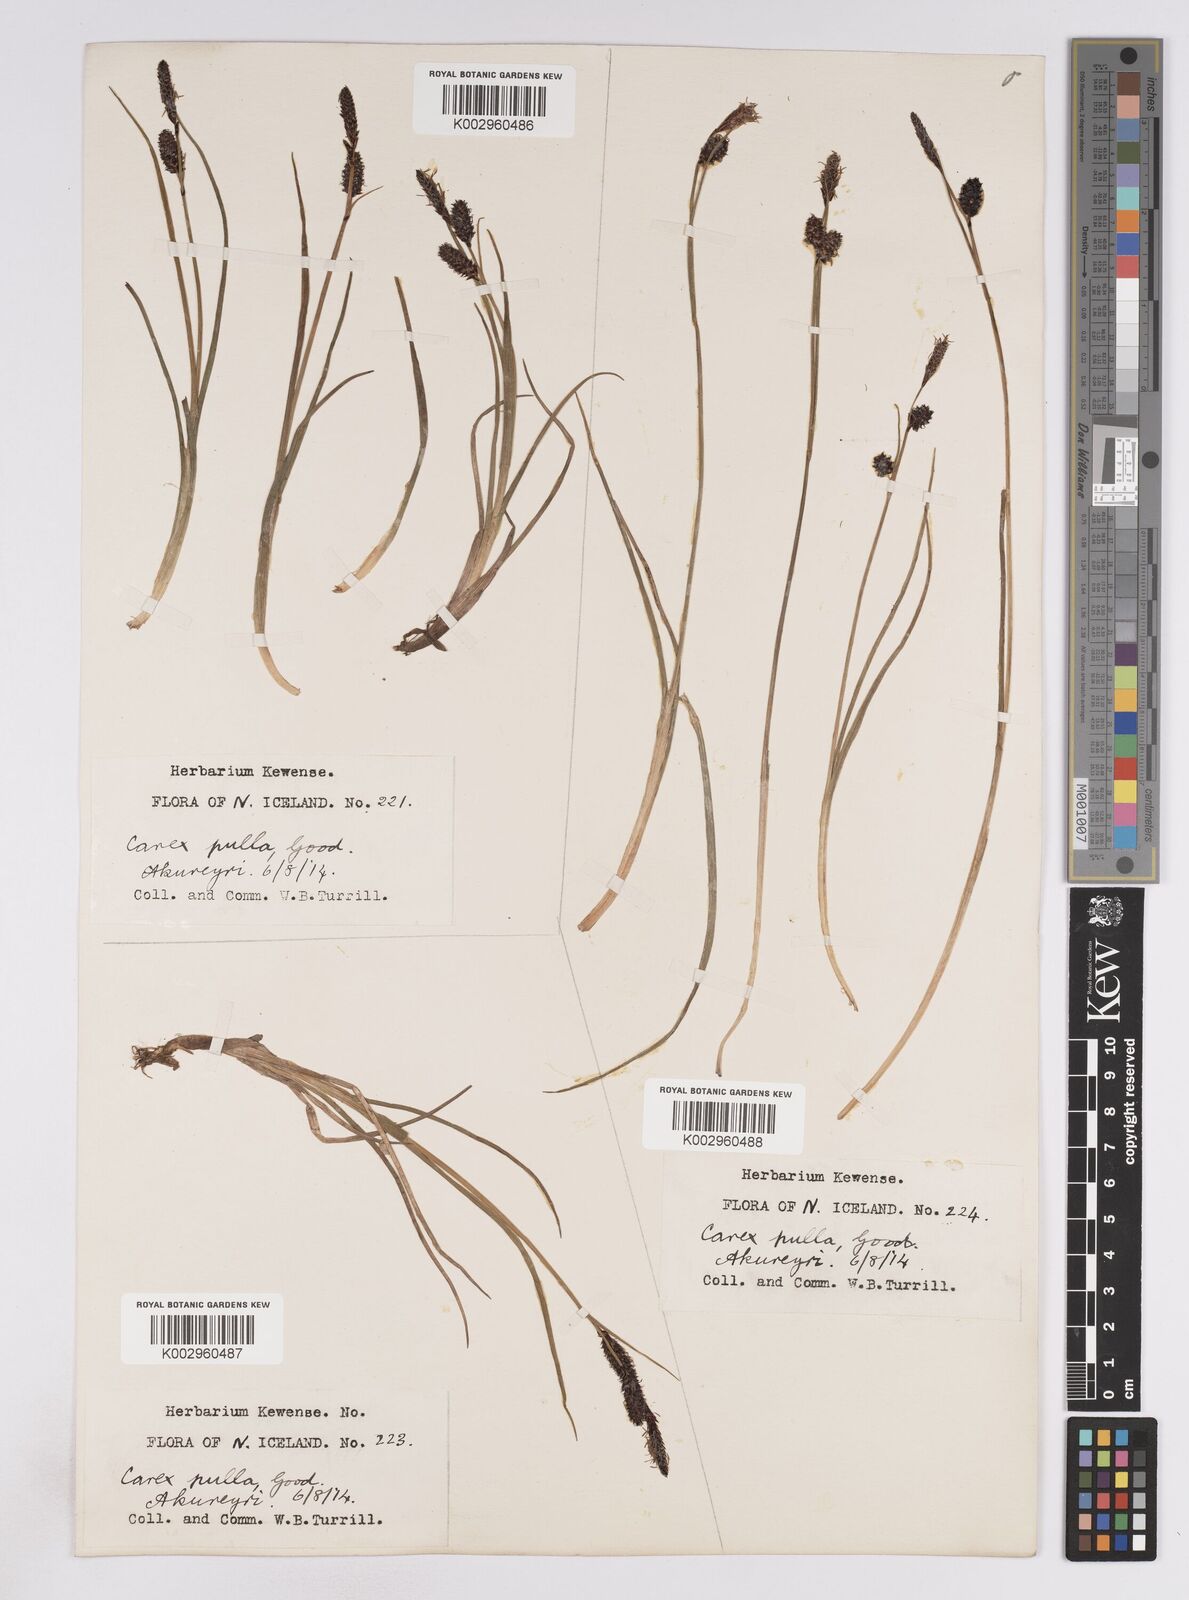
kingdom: Plantae
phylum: Tracheophyta
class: Liliopsida
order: Poales
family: Cyperaceae
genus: Carex
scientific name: Carex saxatilis
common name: Russet sedge
